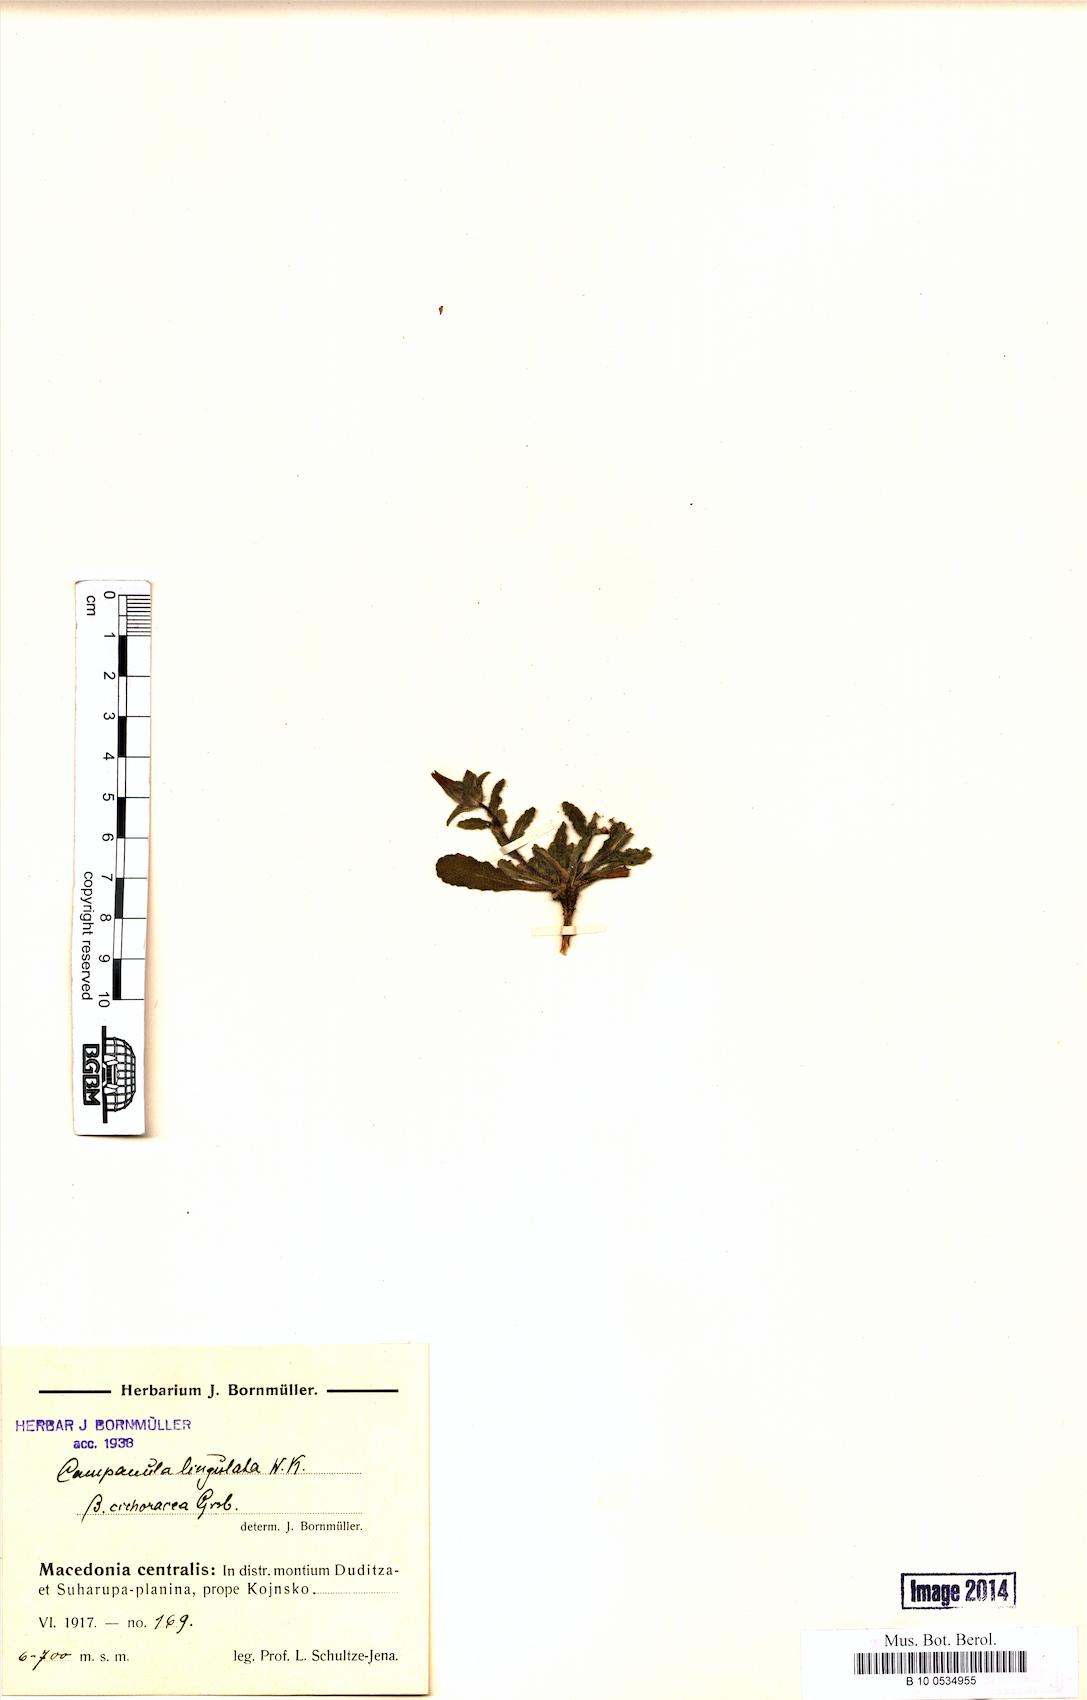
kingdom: Plantae
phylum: Tracheophyta
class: Magnoliopsida
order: Asterales
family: Campanulaceae
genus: Campanula
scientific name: Campanula lingulata
